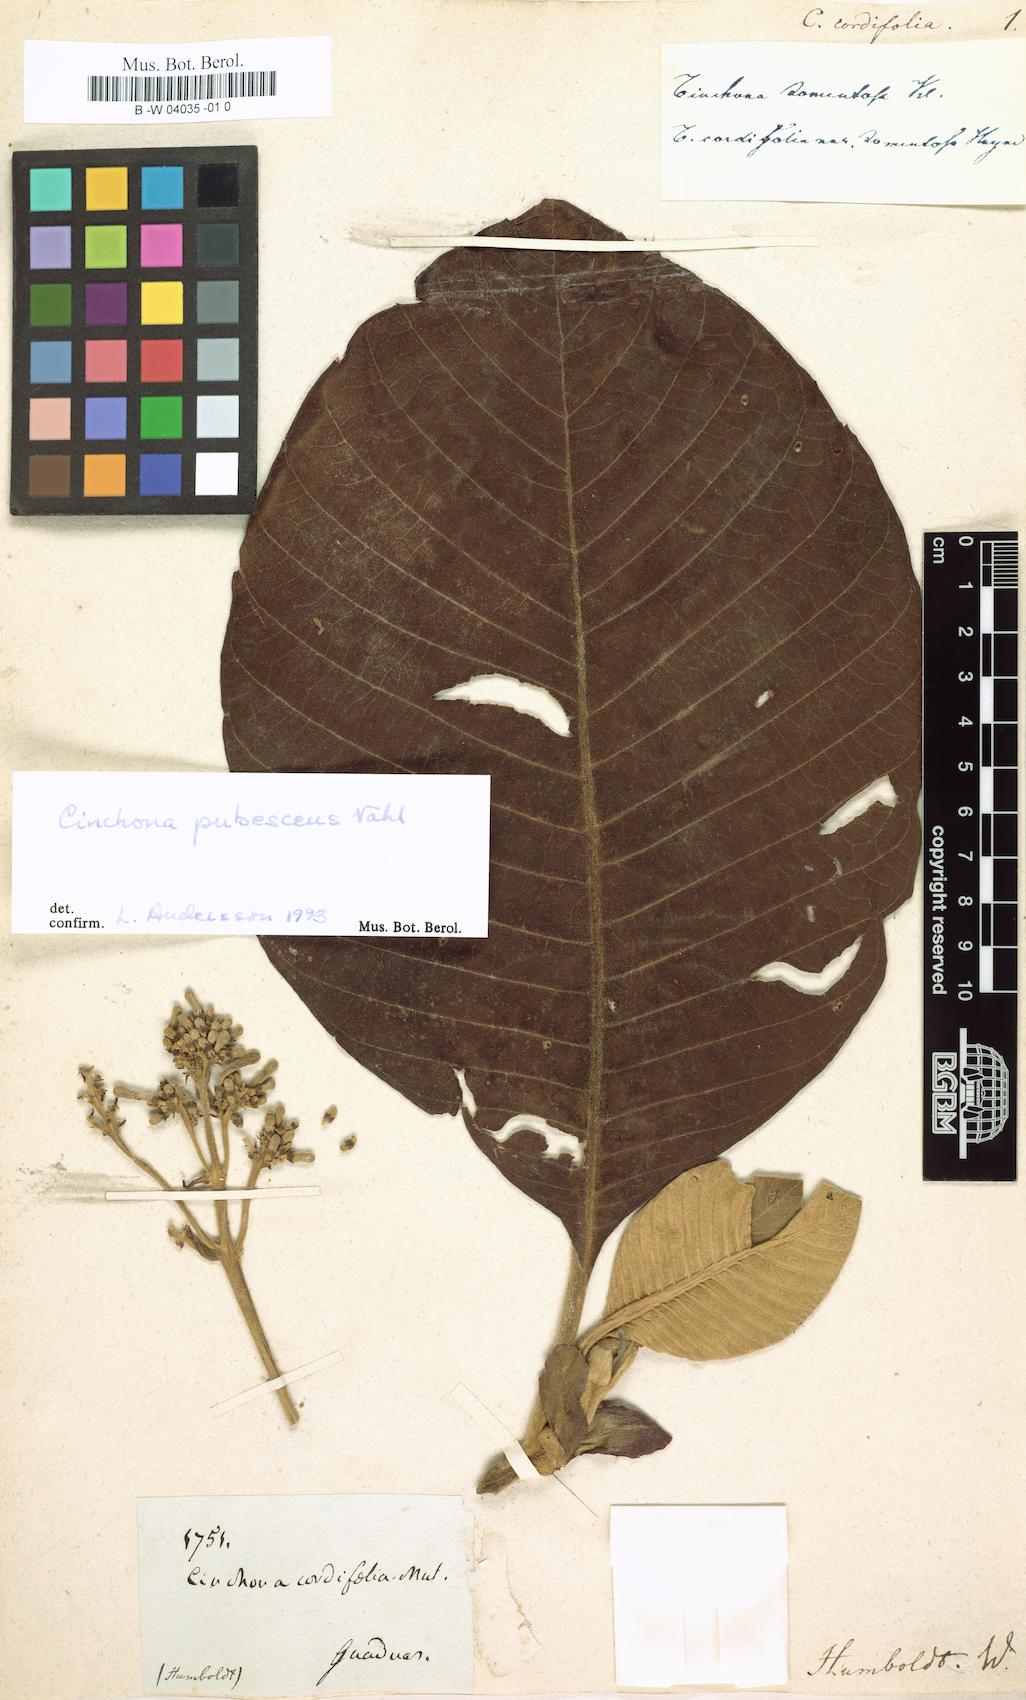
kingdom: Plantae
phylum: Tracheophyta
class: Magnoliopsida
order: Gentianales
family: Rubiaceae
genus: Cinchona
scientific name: Cinchona cordifolia
